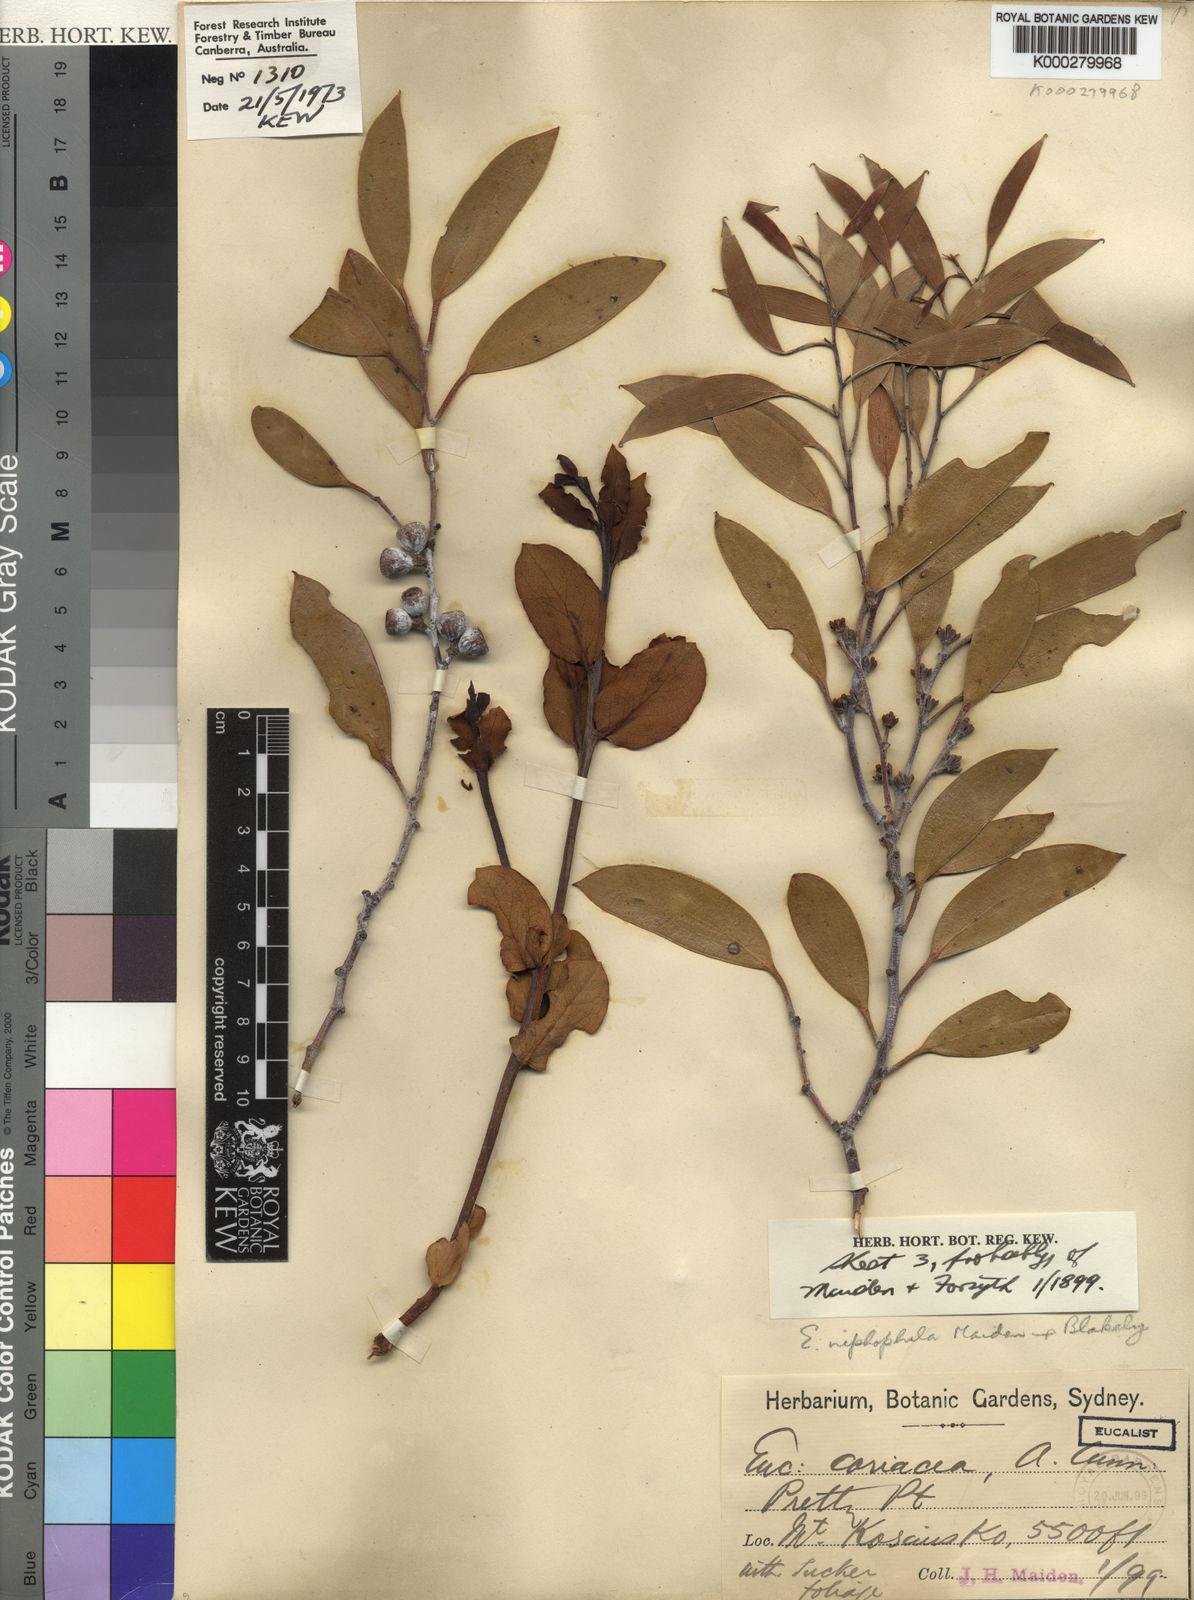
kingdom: Plantae
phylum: Tracheophyta
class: Magnoliopsida
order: Myrtales
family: Myrtaceae
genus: Eucalyptus
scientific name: Eucalyptus pauciflora
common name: Snow gum
